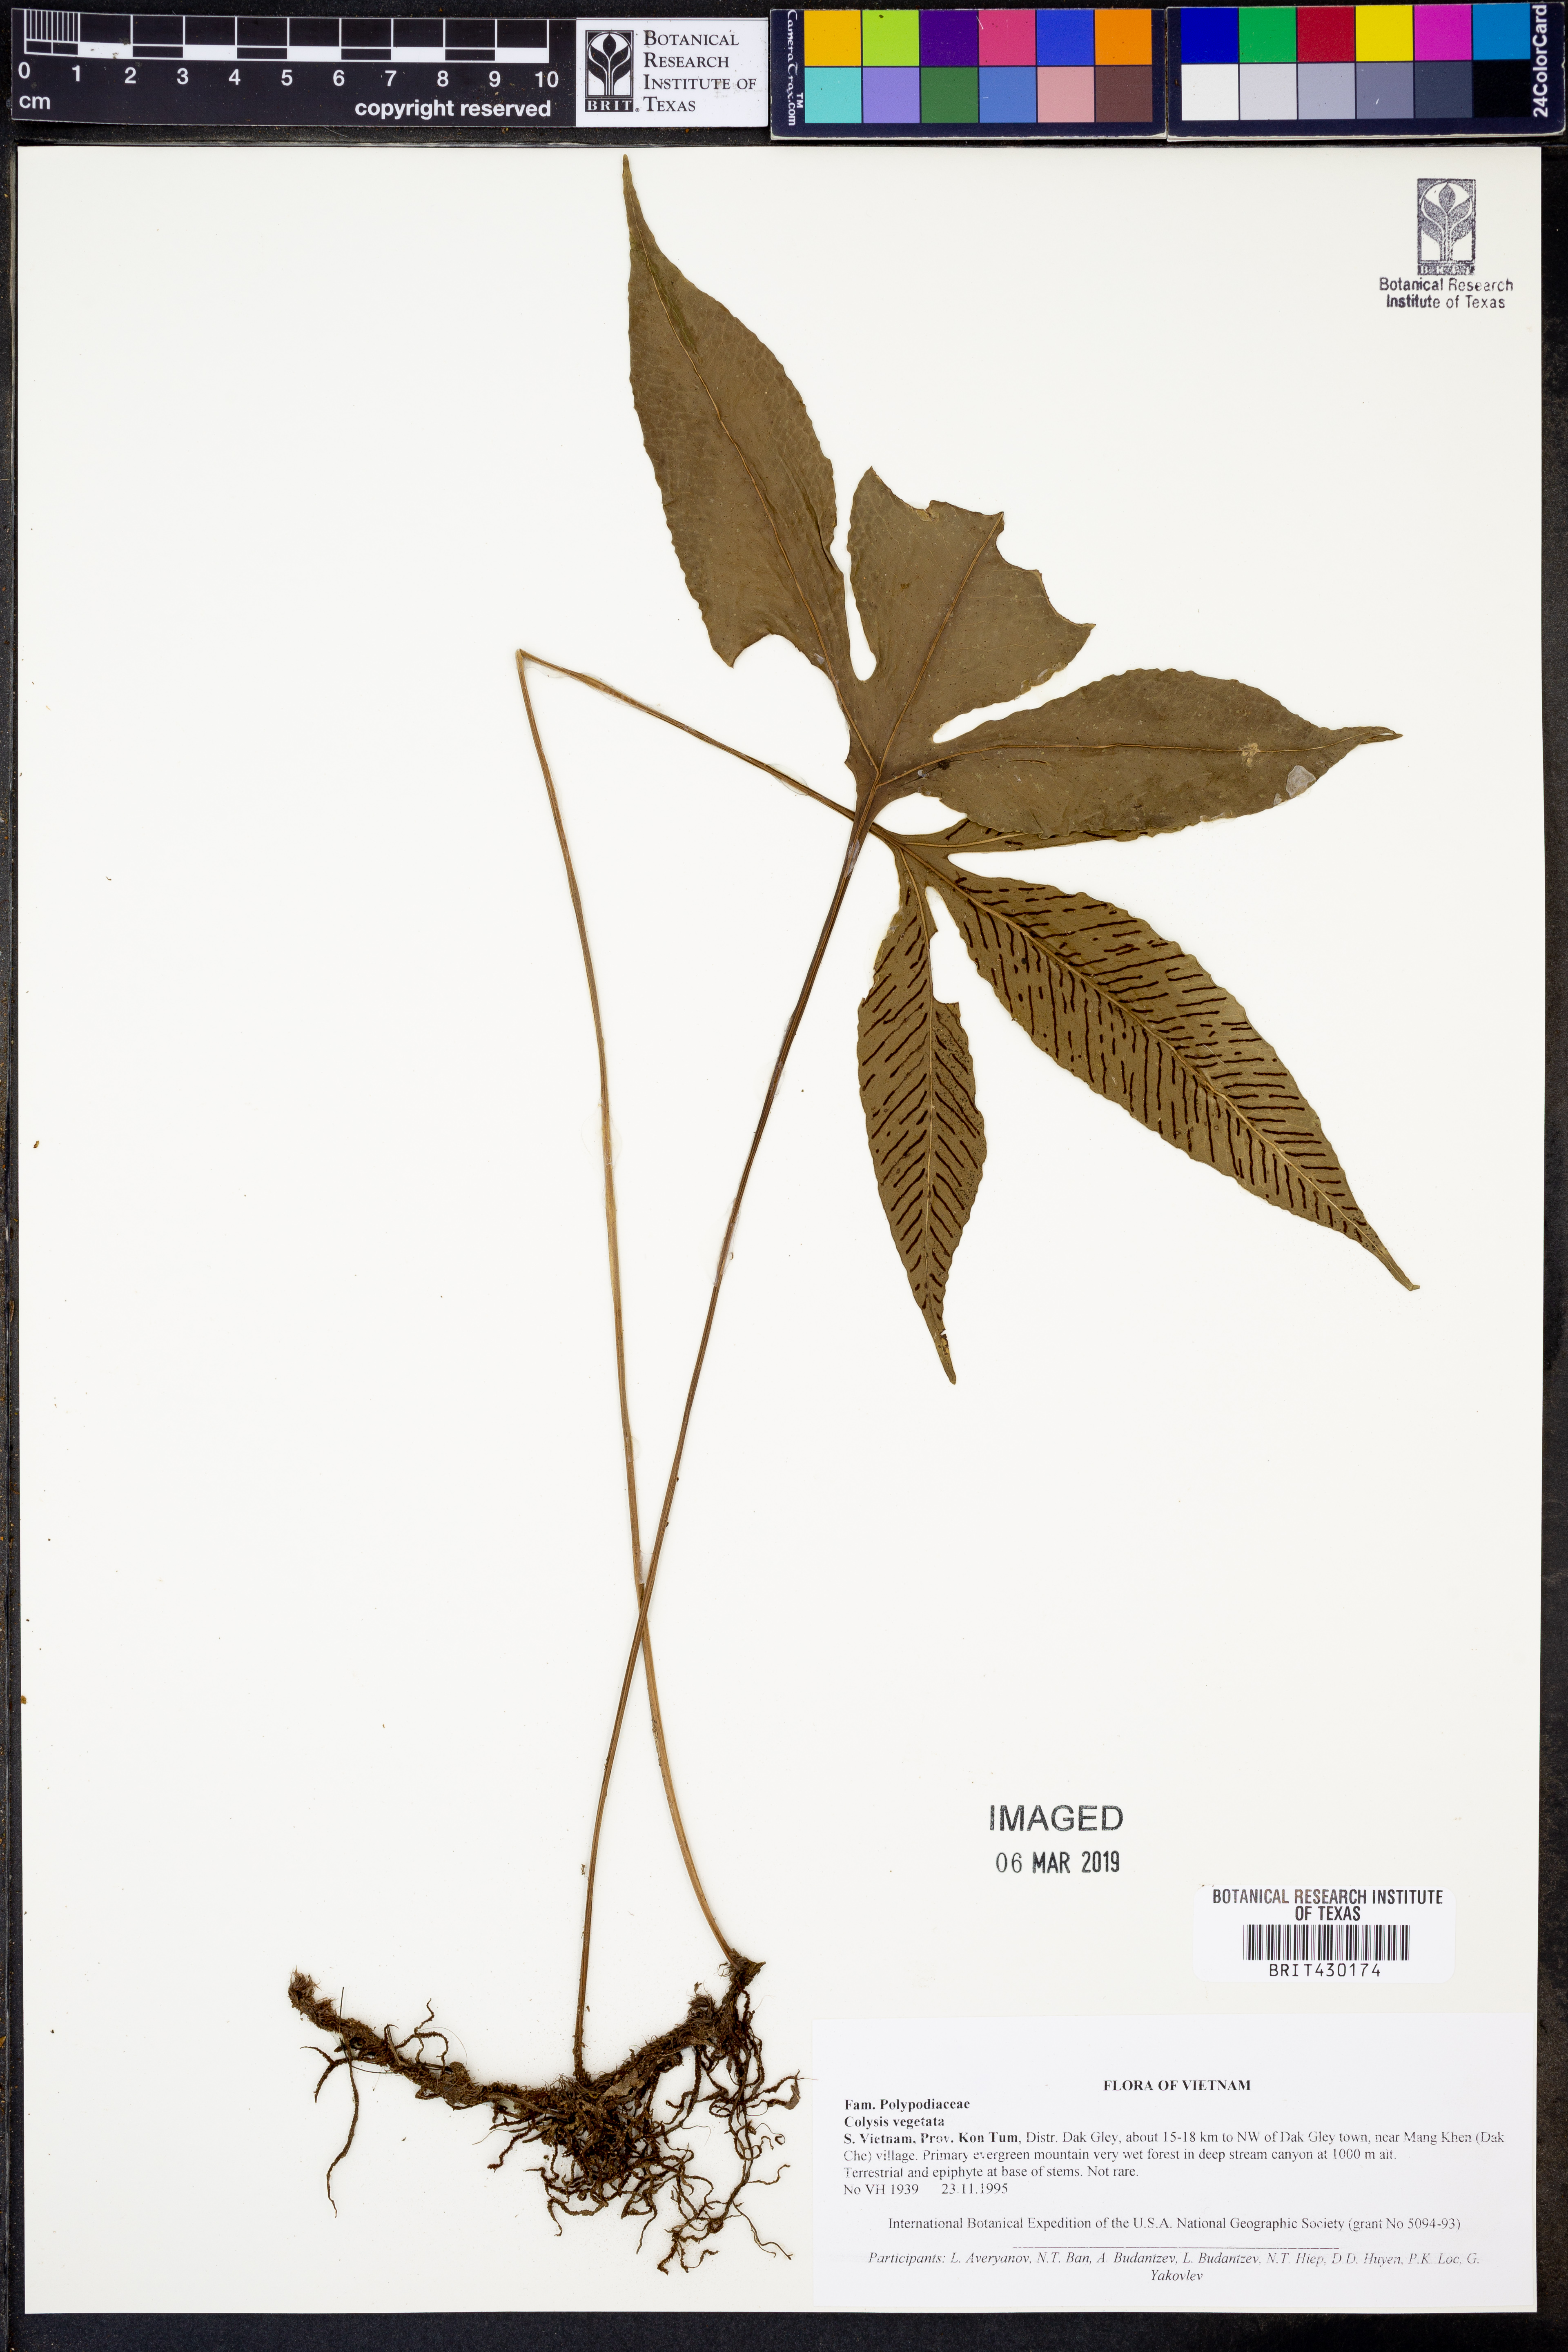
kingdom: Plantae
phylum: Tracheophyta
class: Polypodiopsida
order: Polypodiales
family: Polypodiaceae
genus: Colysis
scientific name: Colysis
